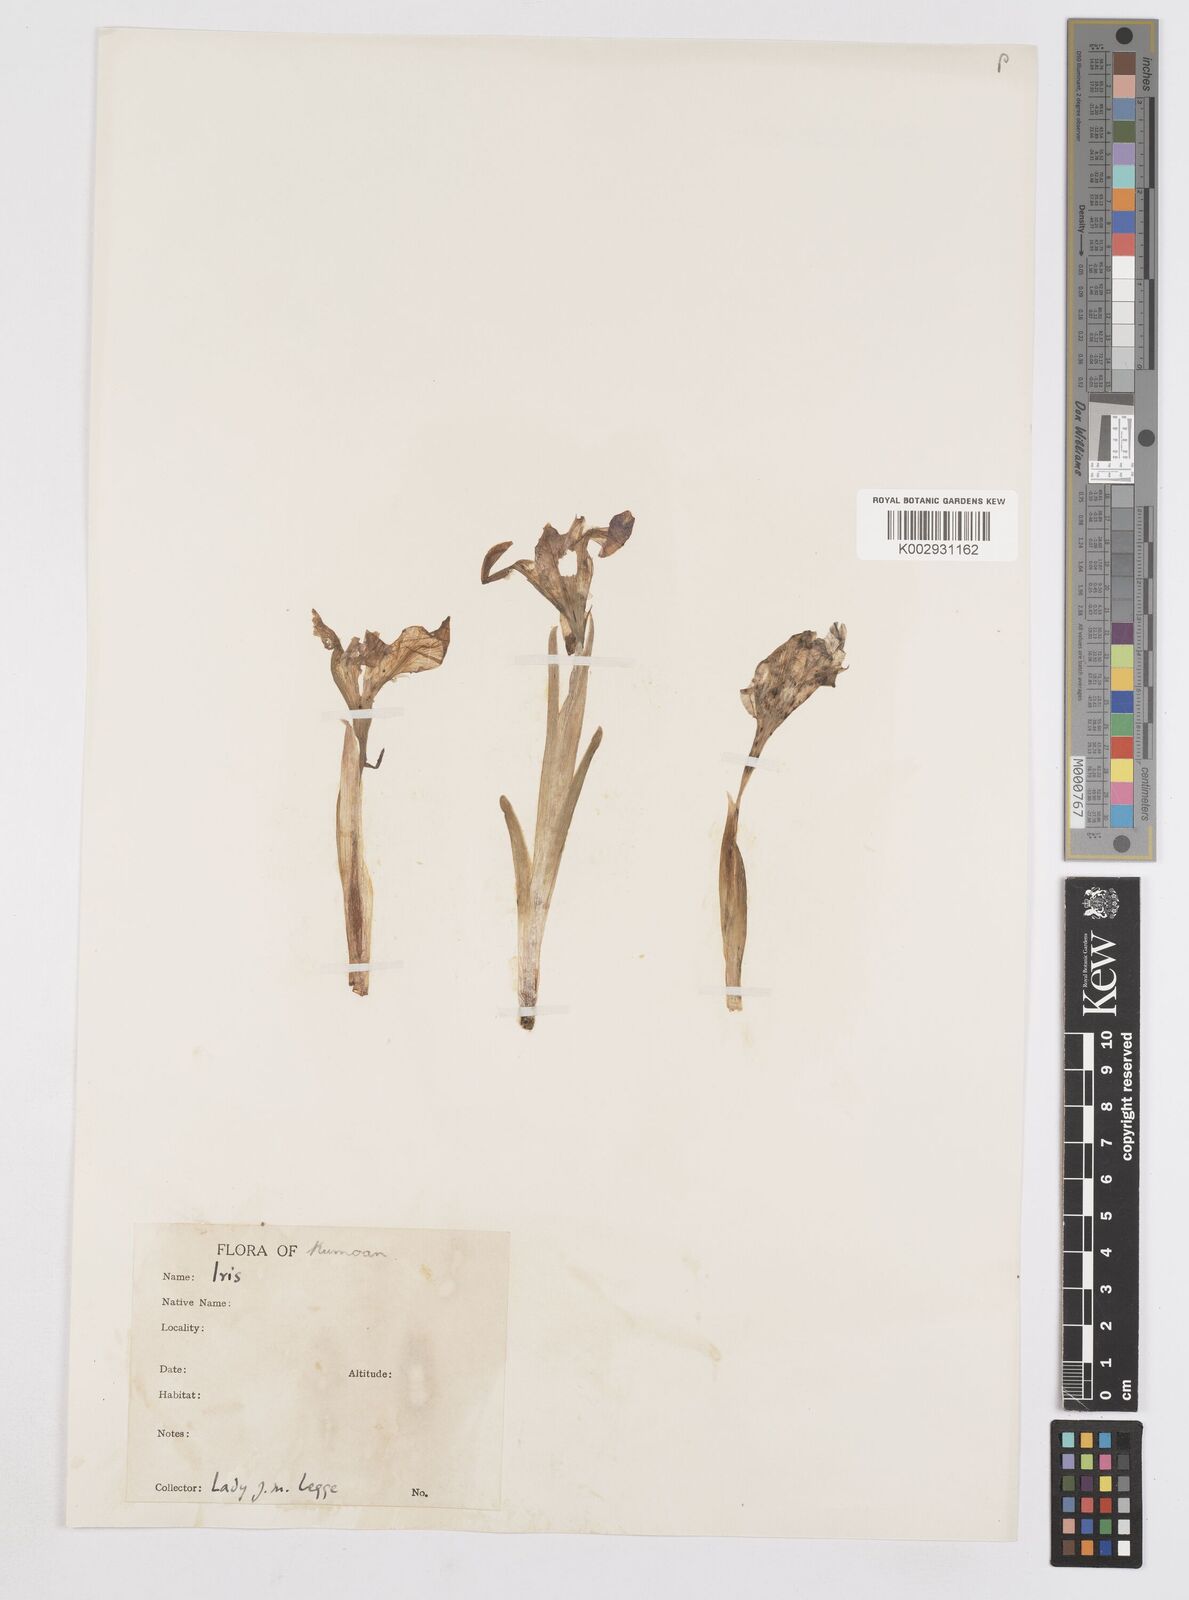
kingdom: Plantae
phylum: Tracheophyta
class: Liliopsida
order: Asparagales
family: Iridaceae
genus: Iris
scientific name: Iris kemaonensis
